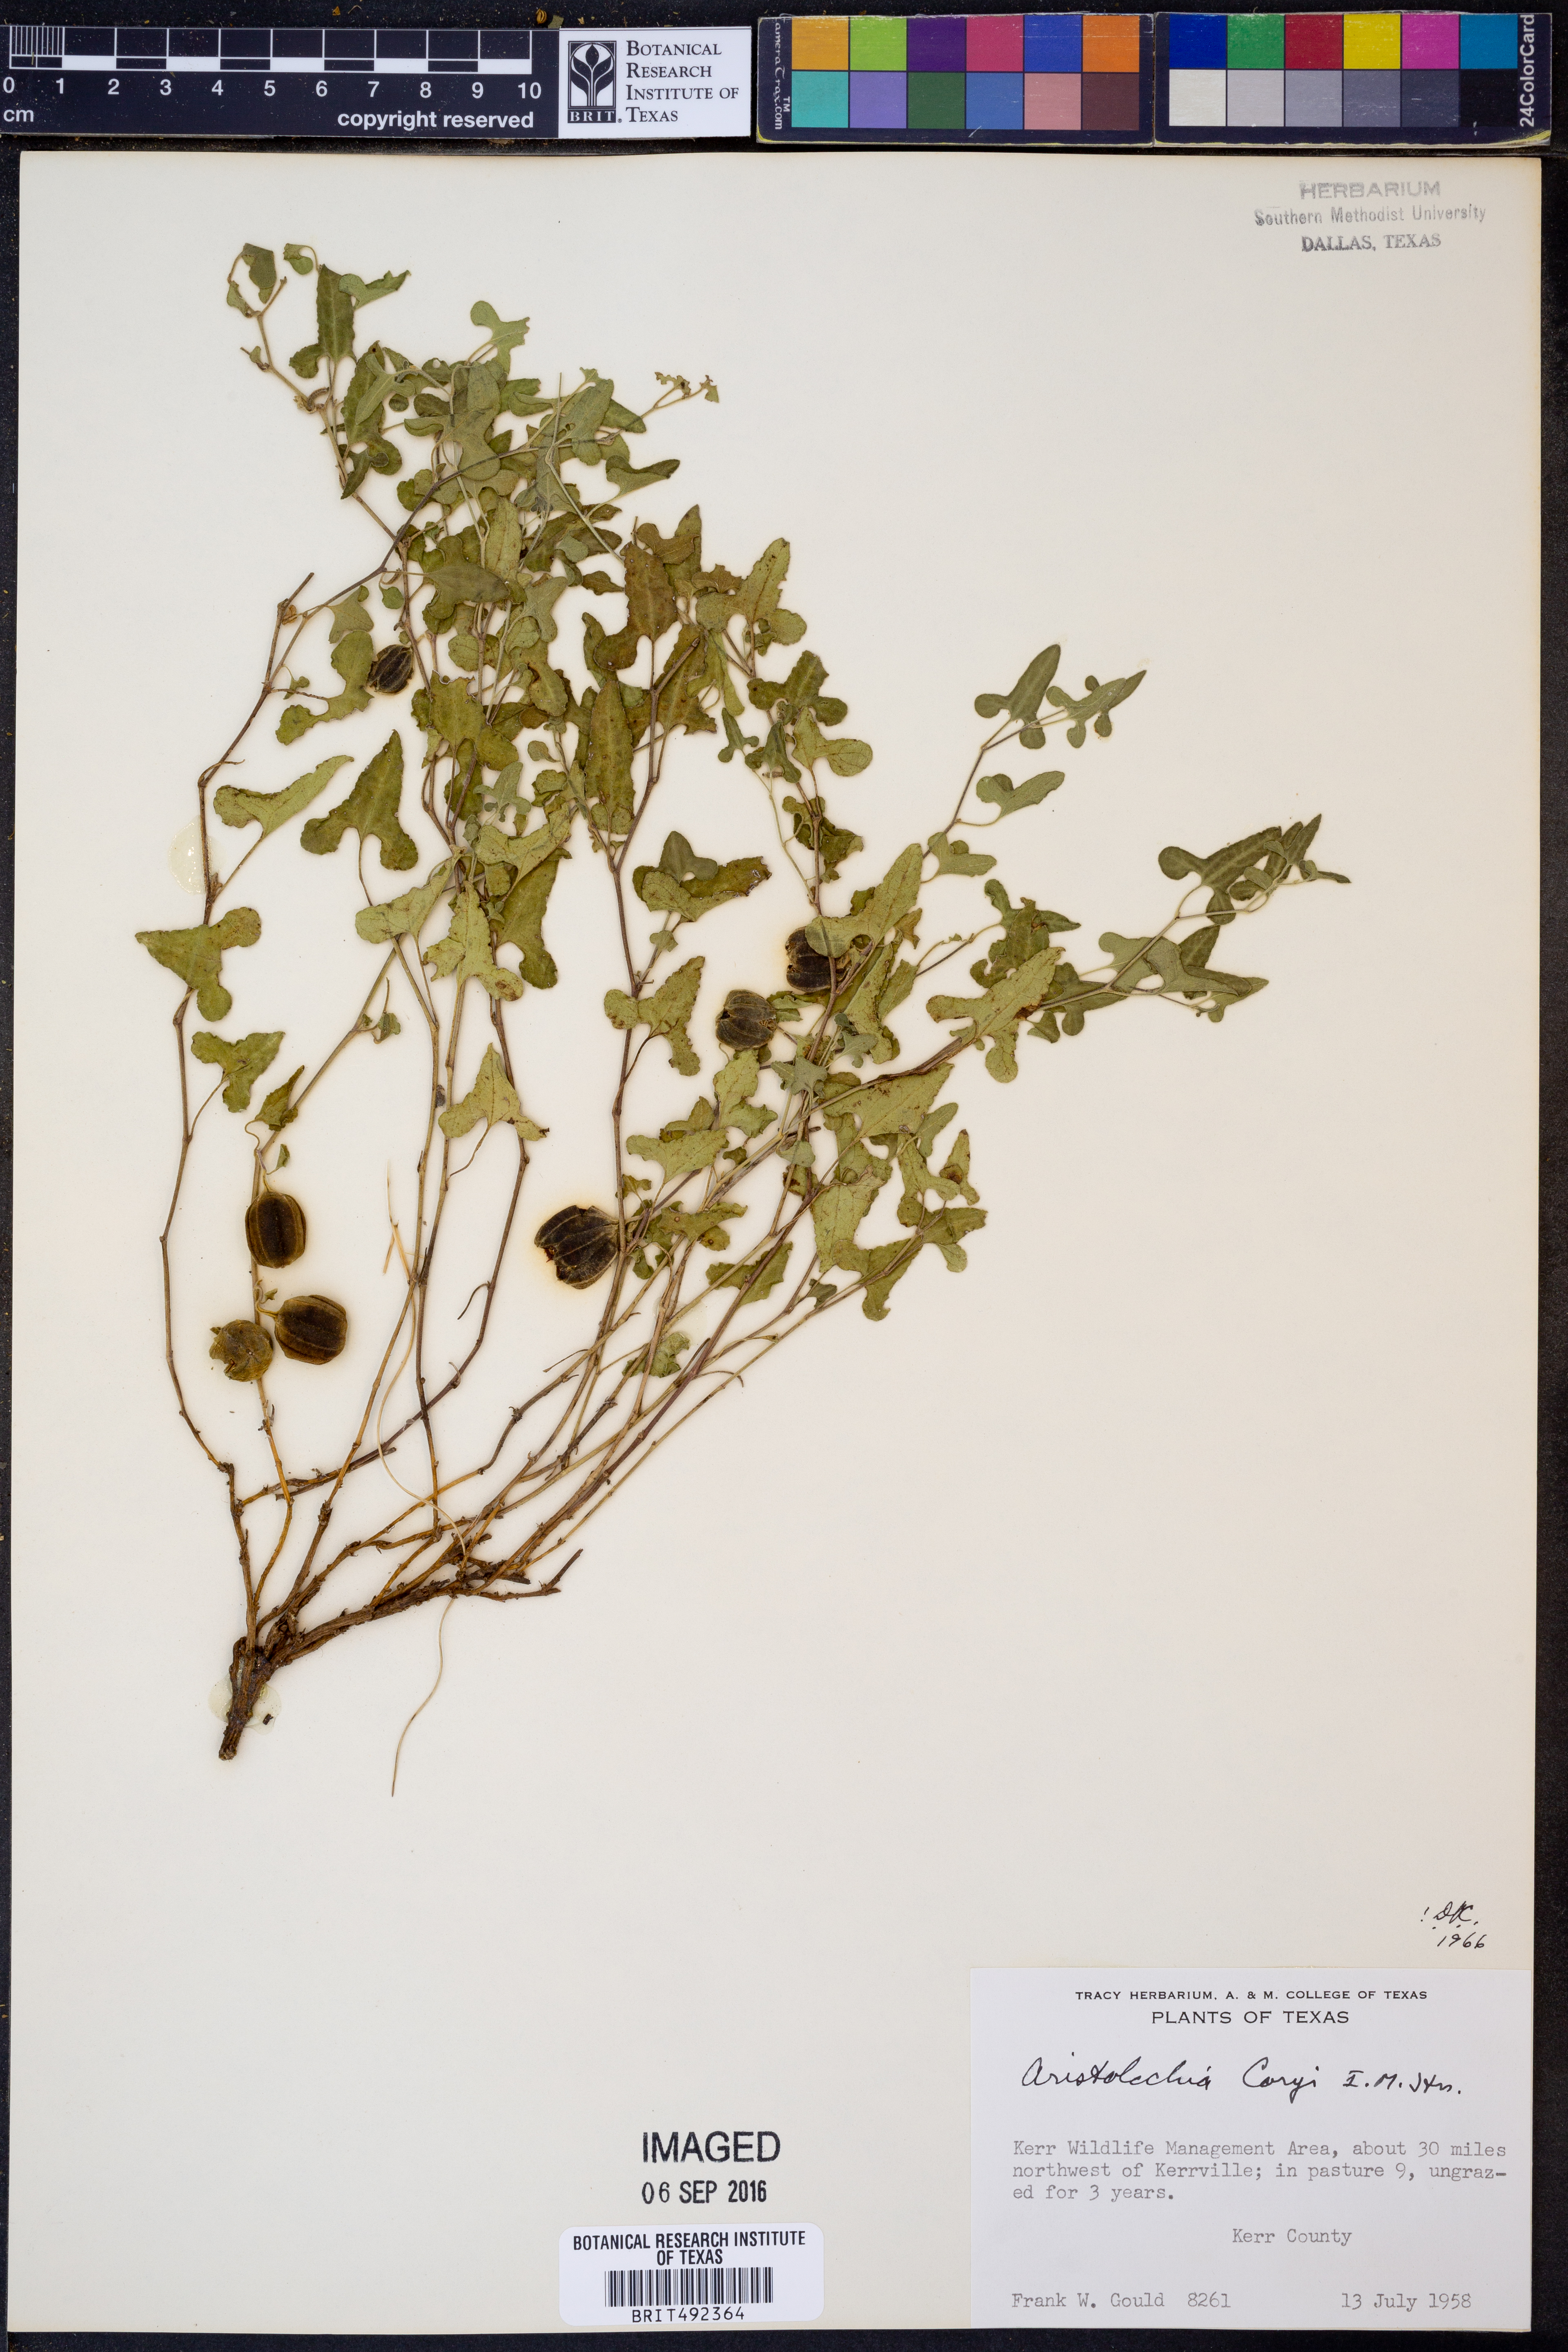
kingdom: Plantae
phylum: Tracheophyta
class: Magnoliopsida
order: Piperales
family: Aristolochiaceae
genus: Aristolochia
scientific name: Aristolochia coryi
